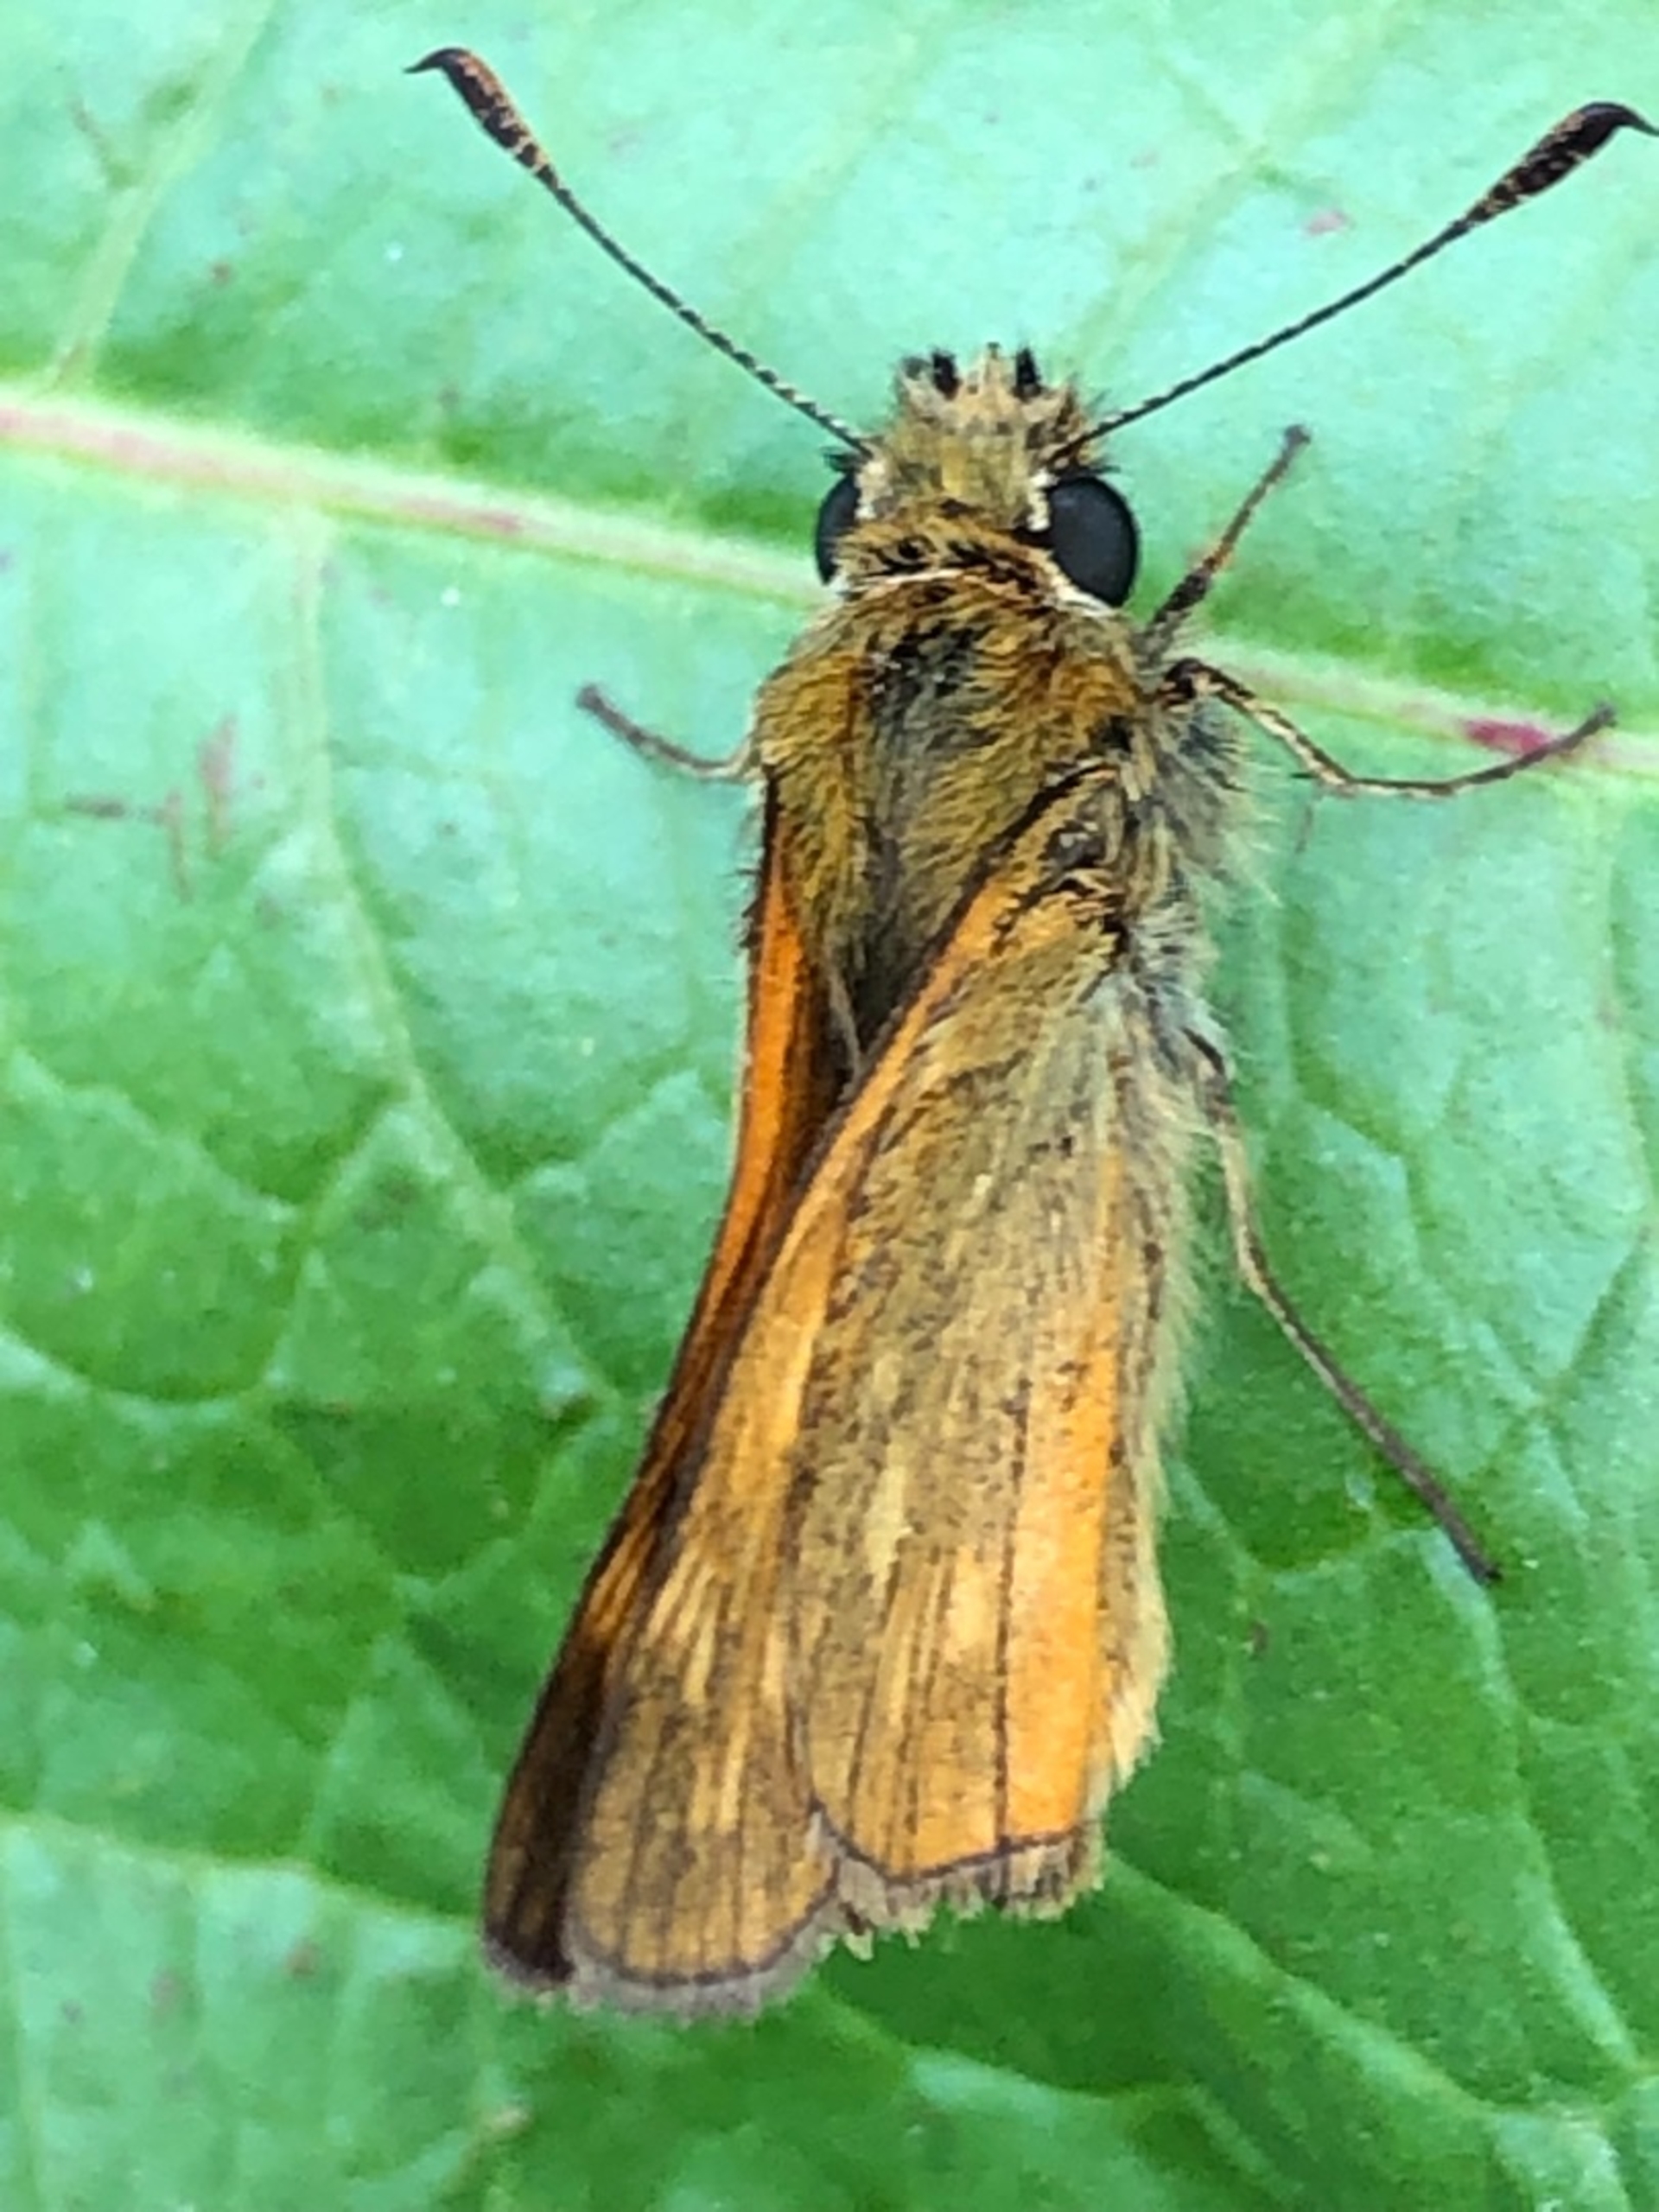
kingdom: Animalia
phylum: Arthropoda
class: Insecta
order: Lepidoptera
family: Hesperiidae
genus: Ochlodes
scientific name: Ochlodes venata
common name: Stor bredpande
